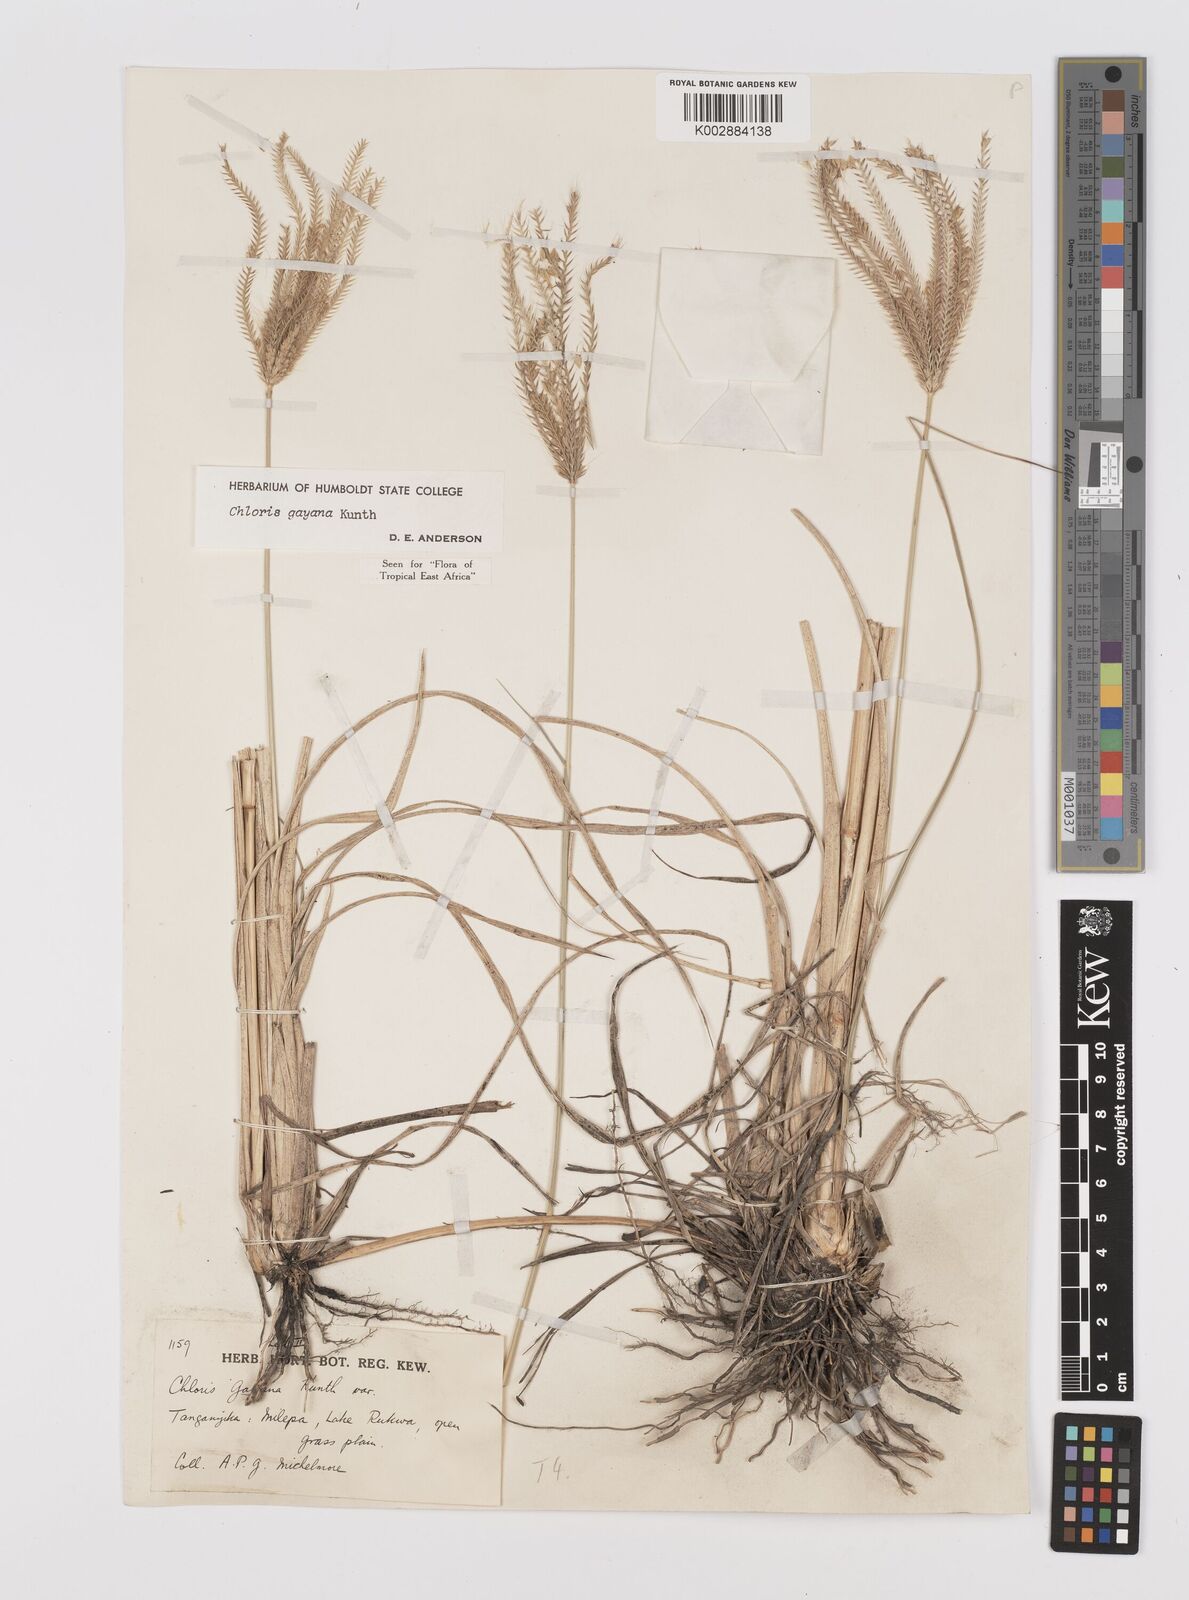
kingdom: Plantae
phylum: Tracheophyta
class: Liliopsida
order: Poales
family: Poaceae
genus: Chloris
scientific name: Chloris gayana
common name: Rhodes grass
